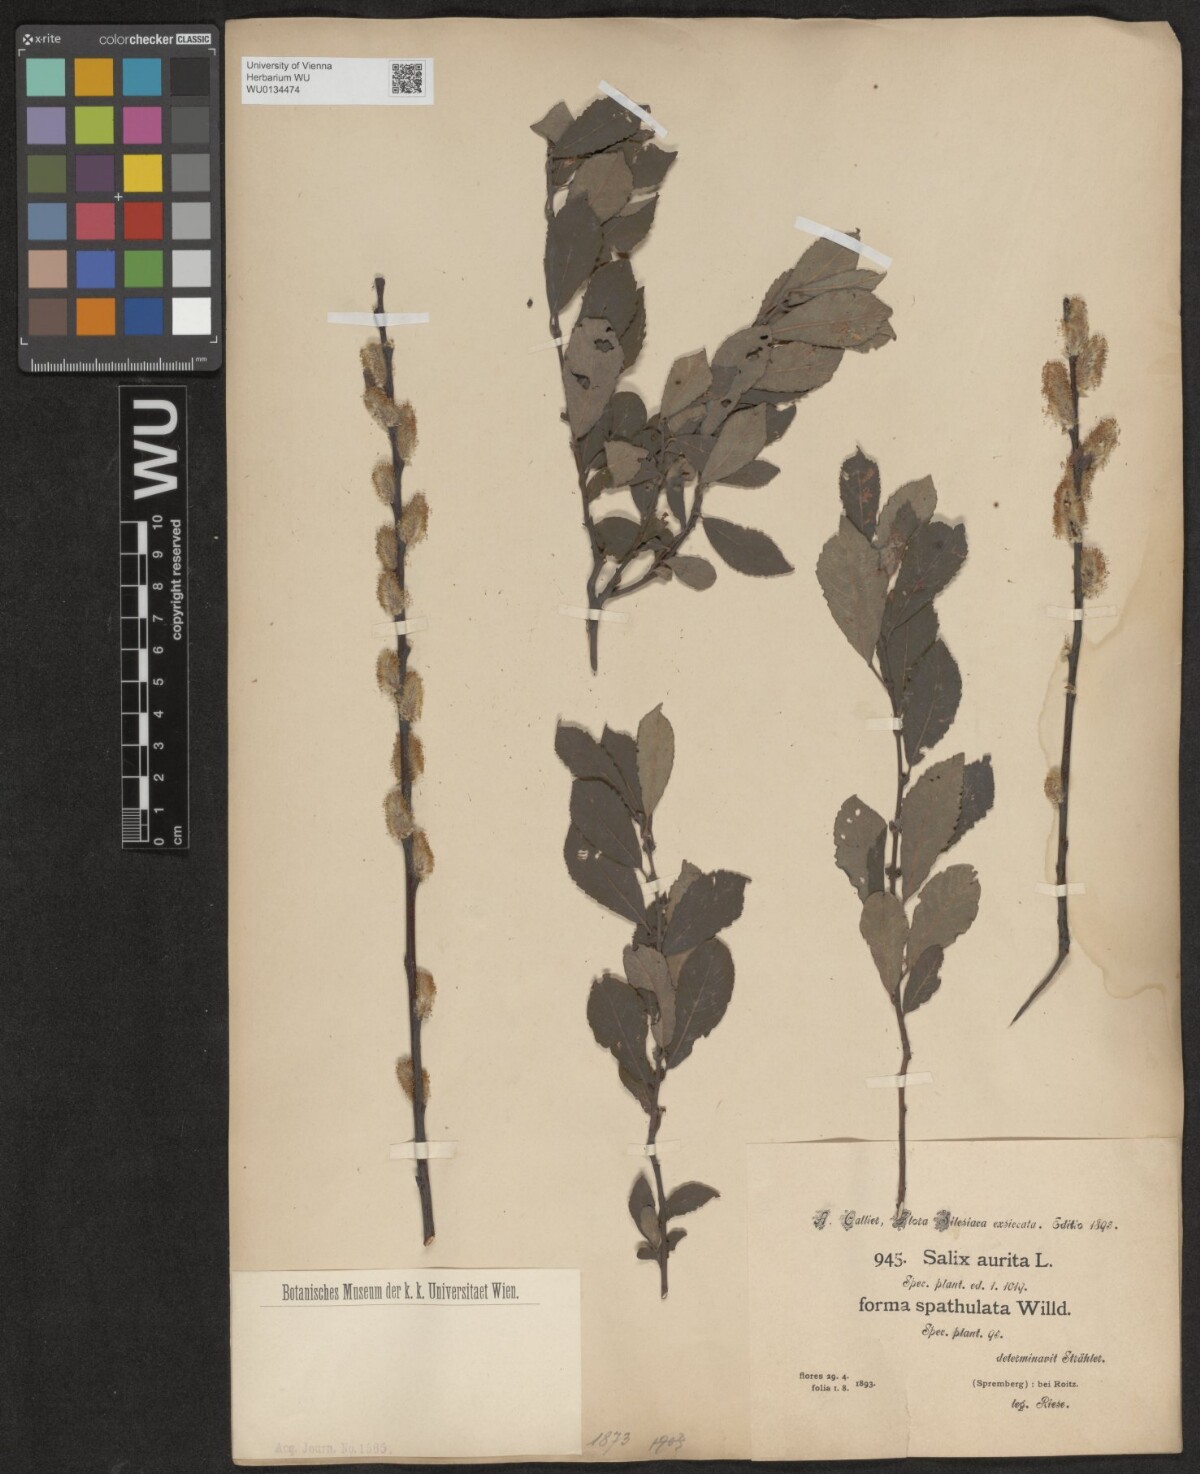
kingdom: Plantae
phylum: Tracheophyta
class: Magnoliopsida
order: Malpighiales
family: Salicaceae
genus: Salix
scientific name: Salix aurita
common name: Eared willow
